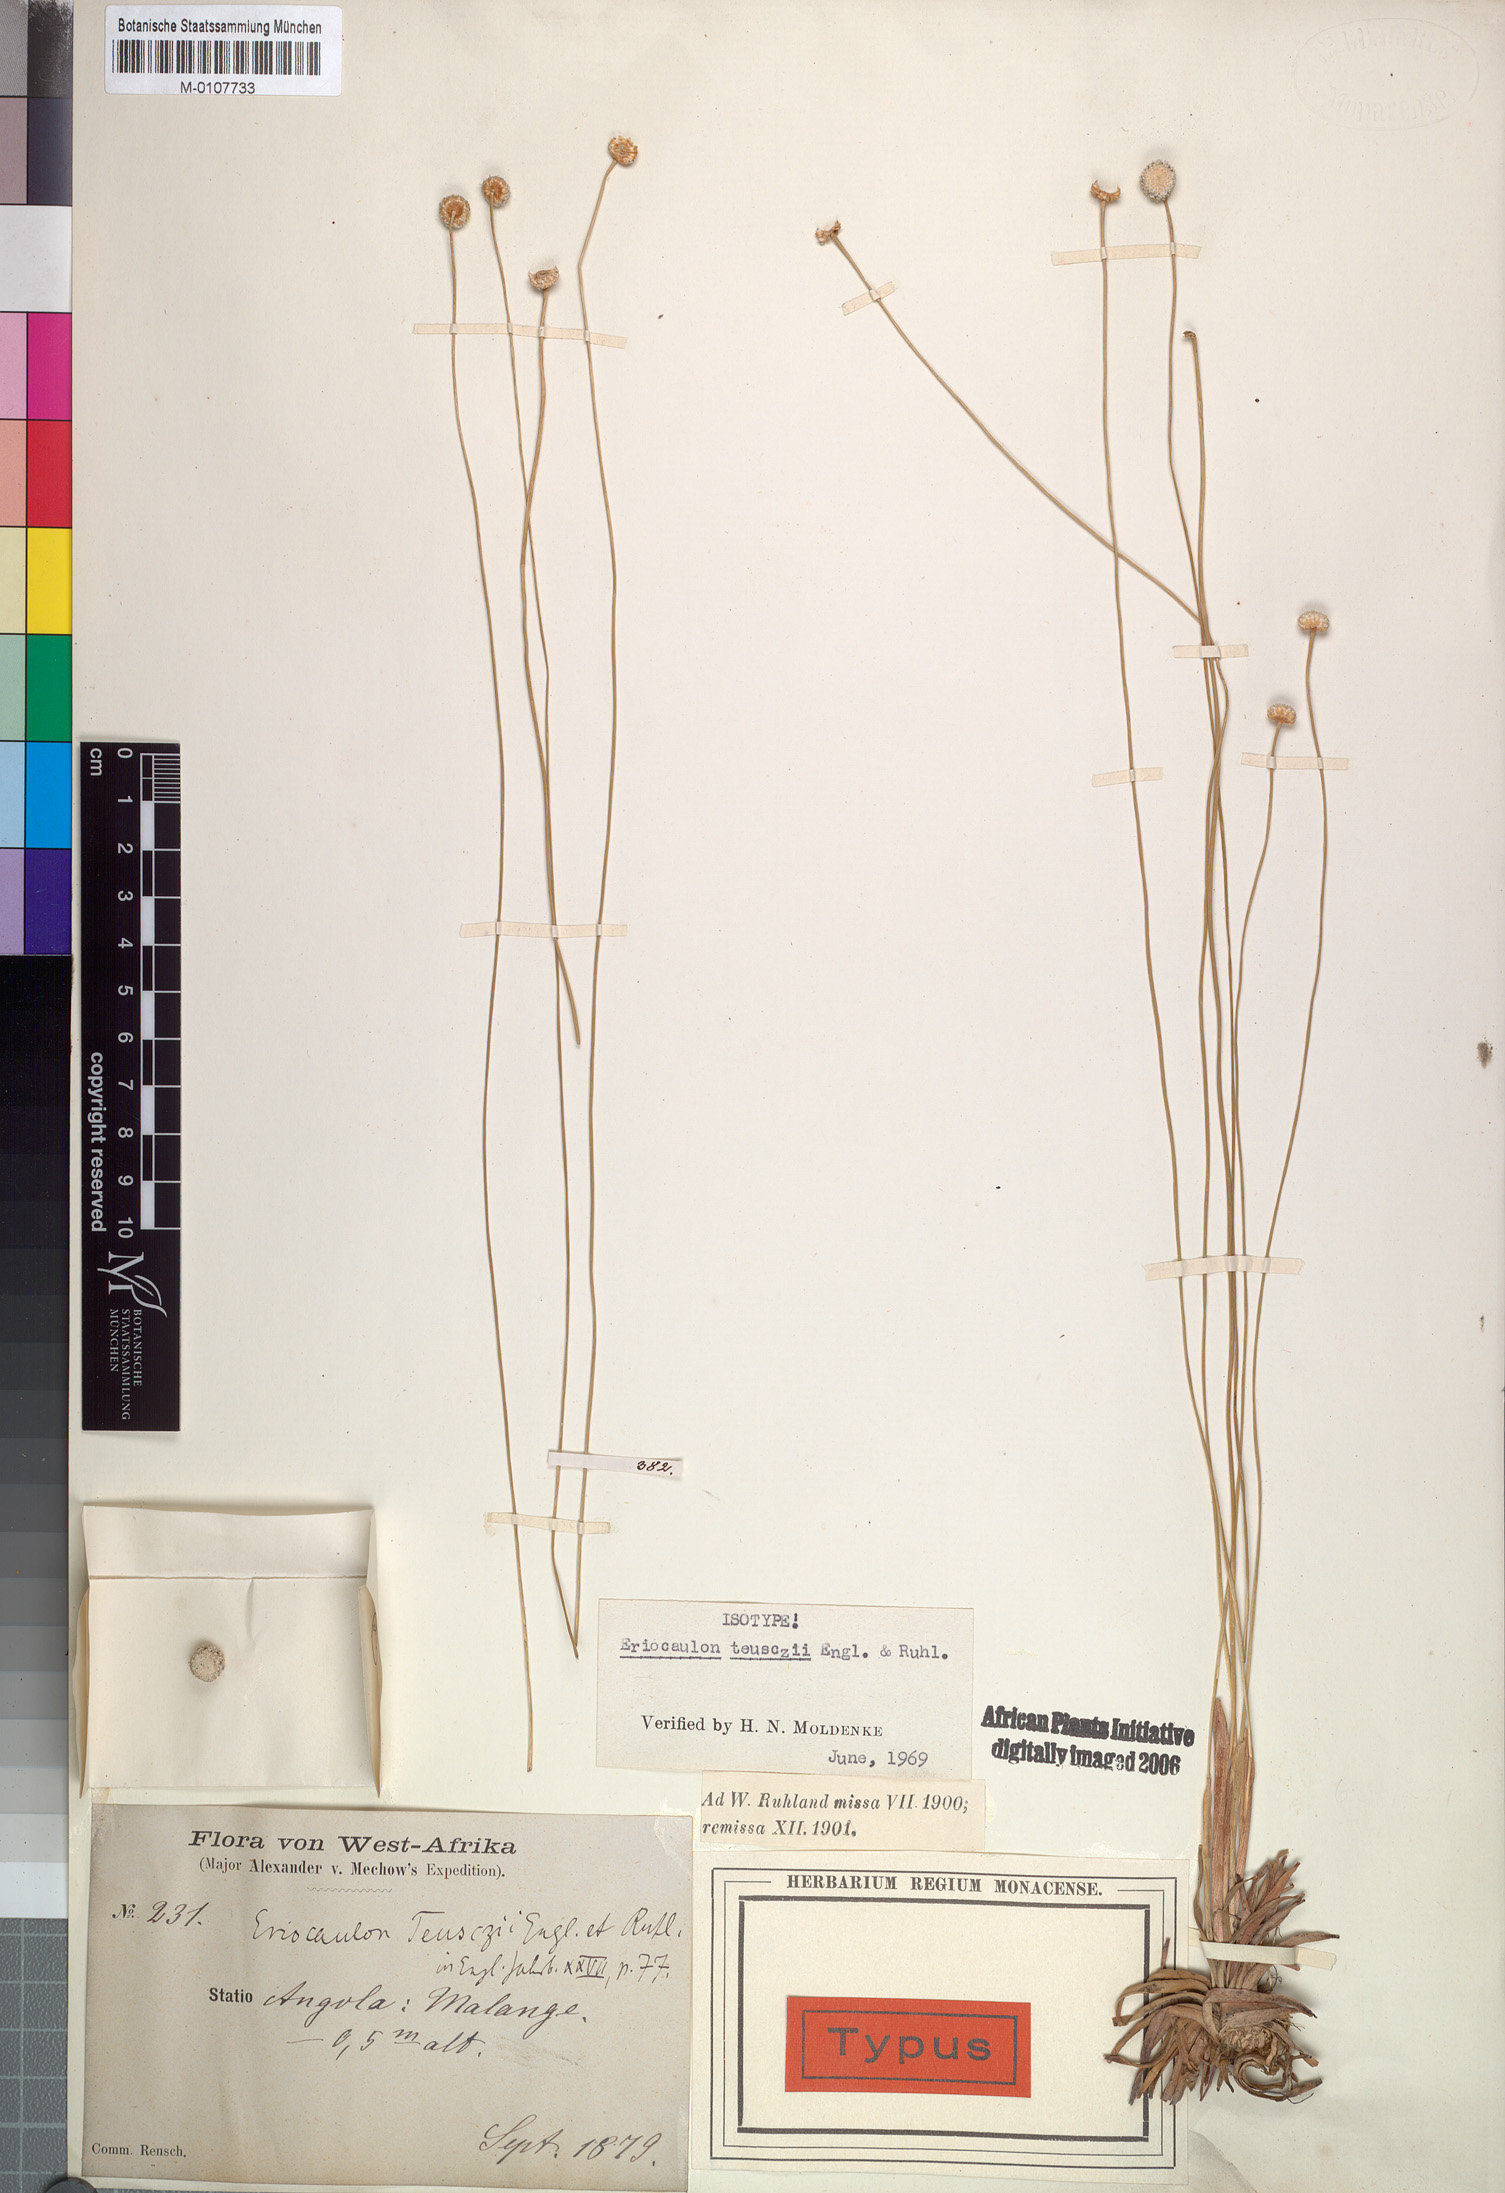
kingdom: Plantae
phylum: Tracheophyta
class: Liliopsida
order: Poales
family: Eriocaulaceae
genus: Eriocaulon
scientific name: Eriocaulon teusczii
